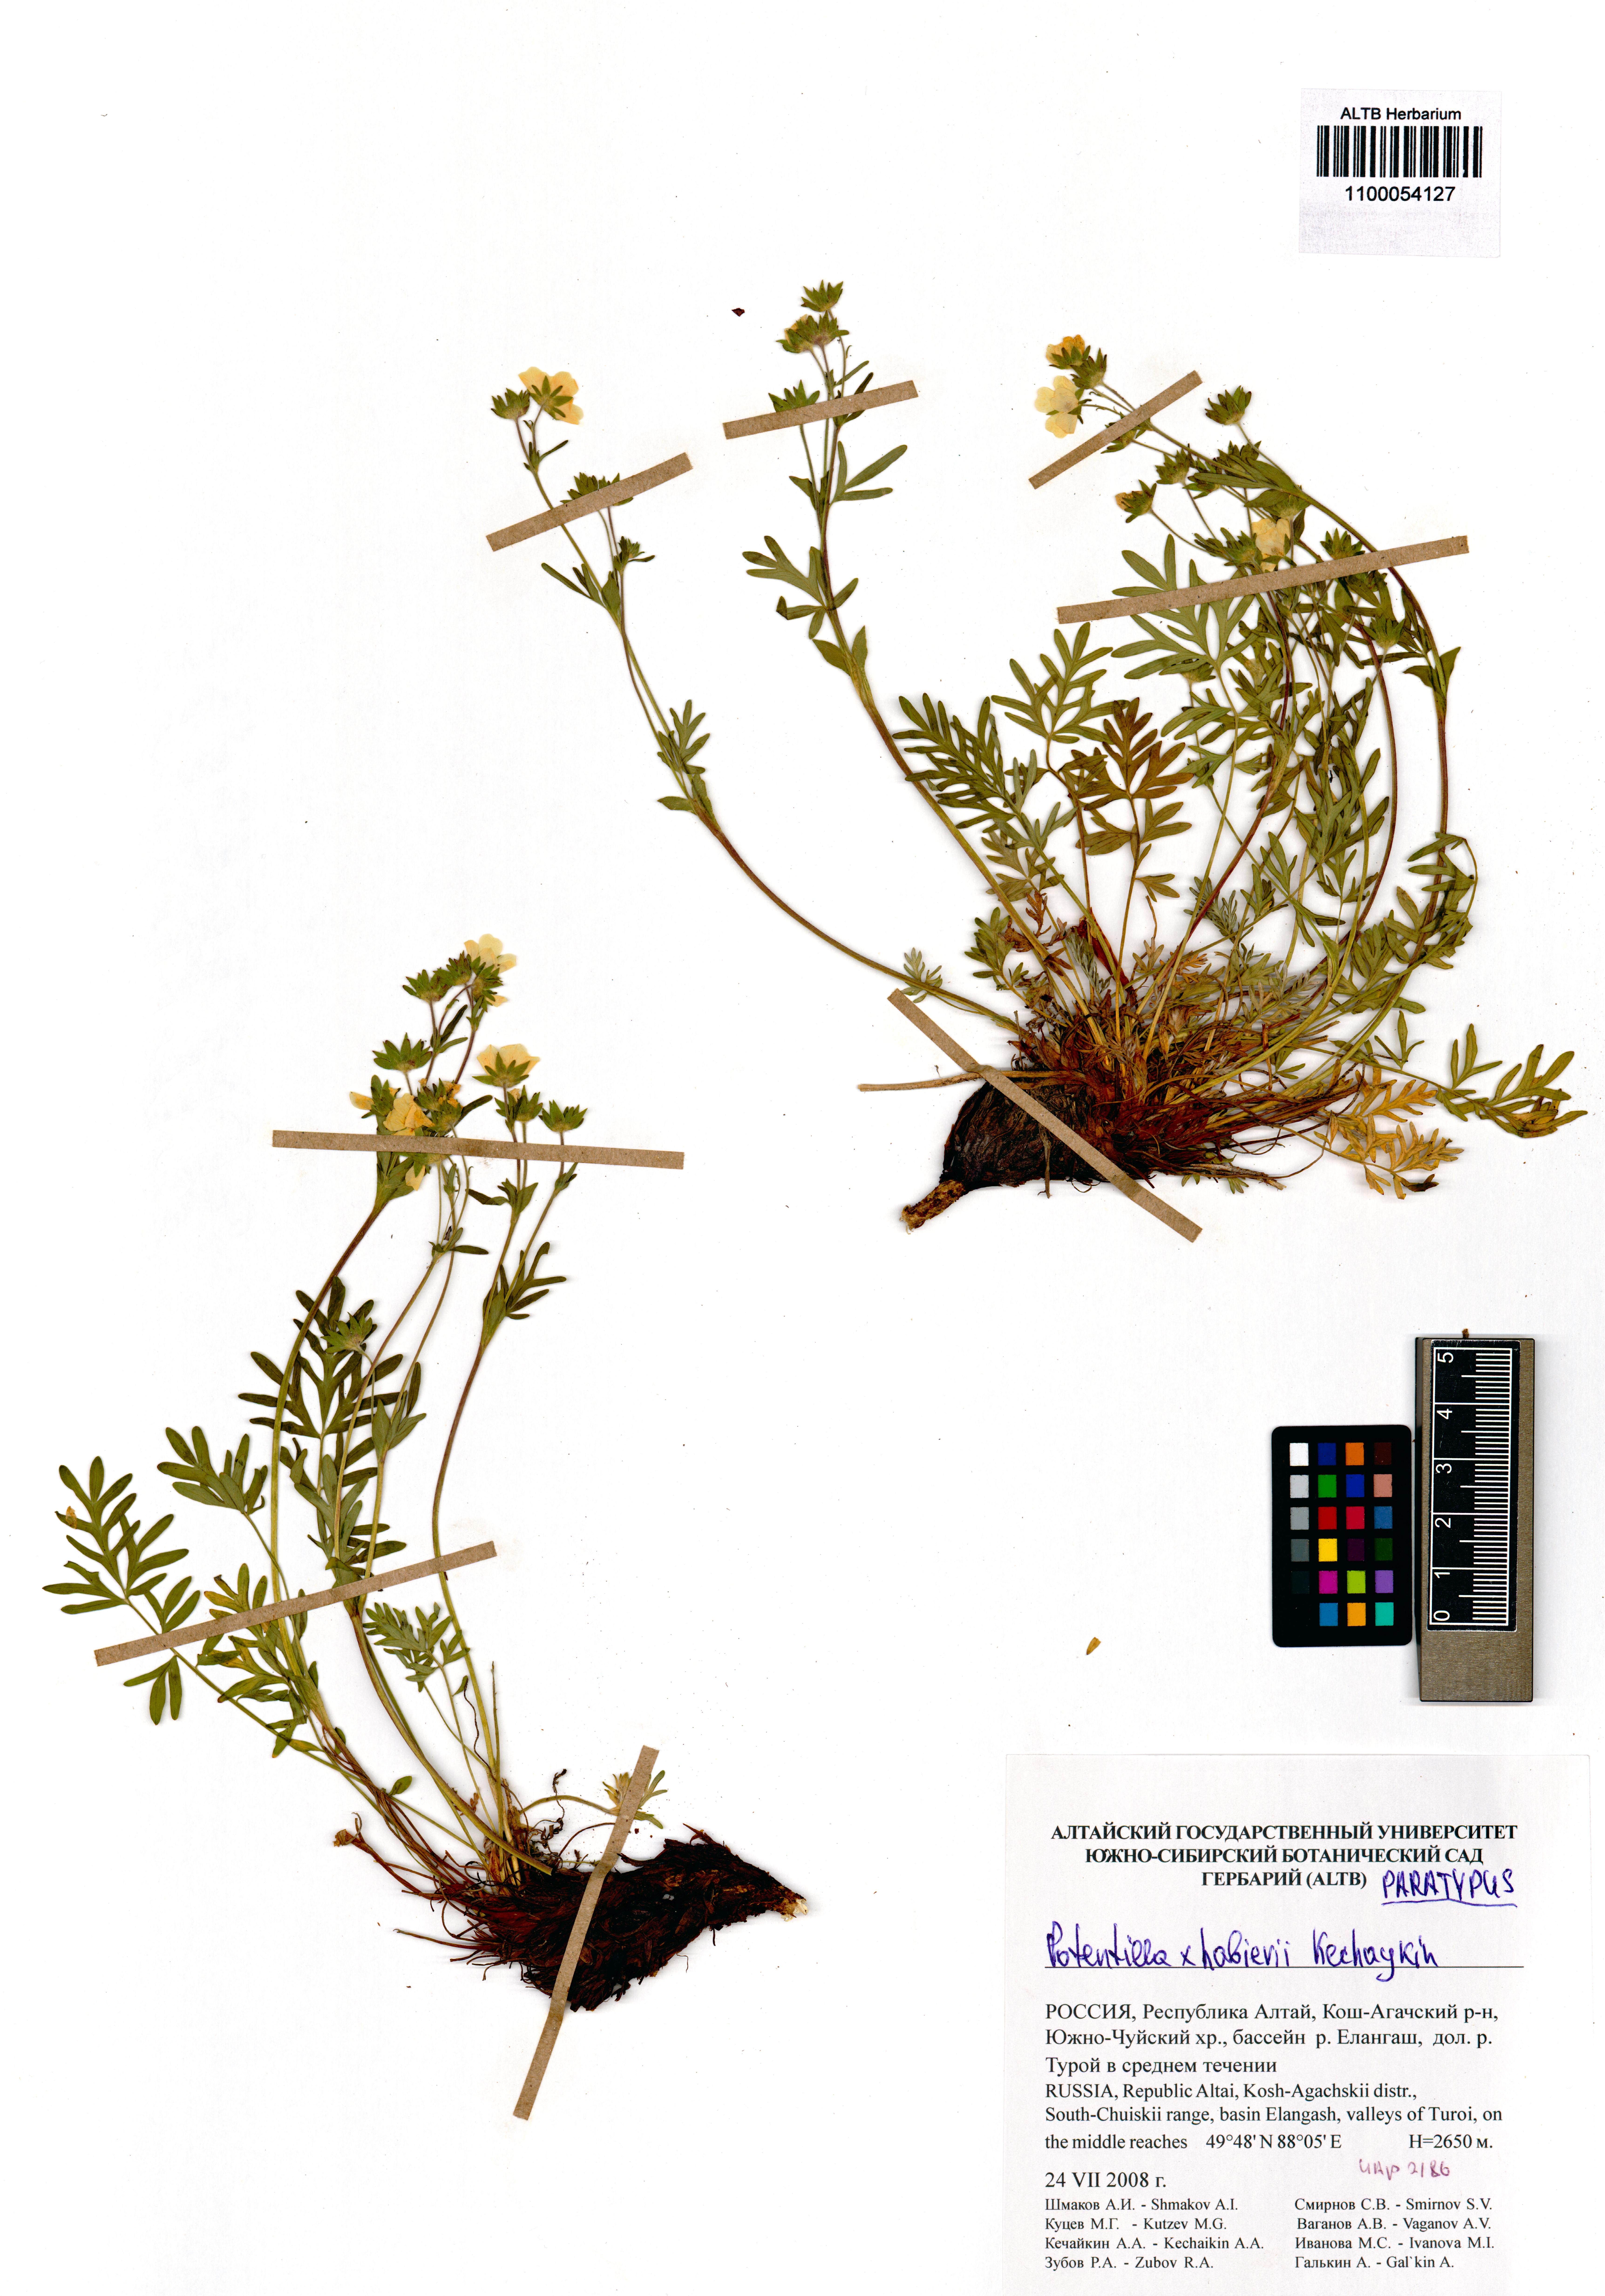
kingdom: Plantae
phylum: Tracheophyta
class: Magnoliopsida
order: Rosales
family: Rosaceae
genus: Potentilla
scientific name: Potentilla habievii
